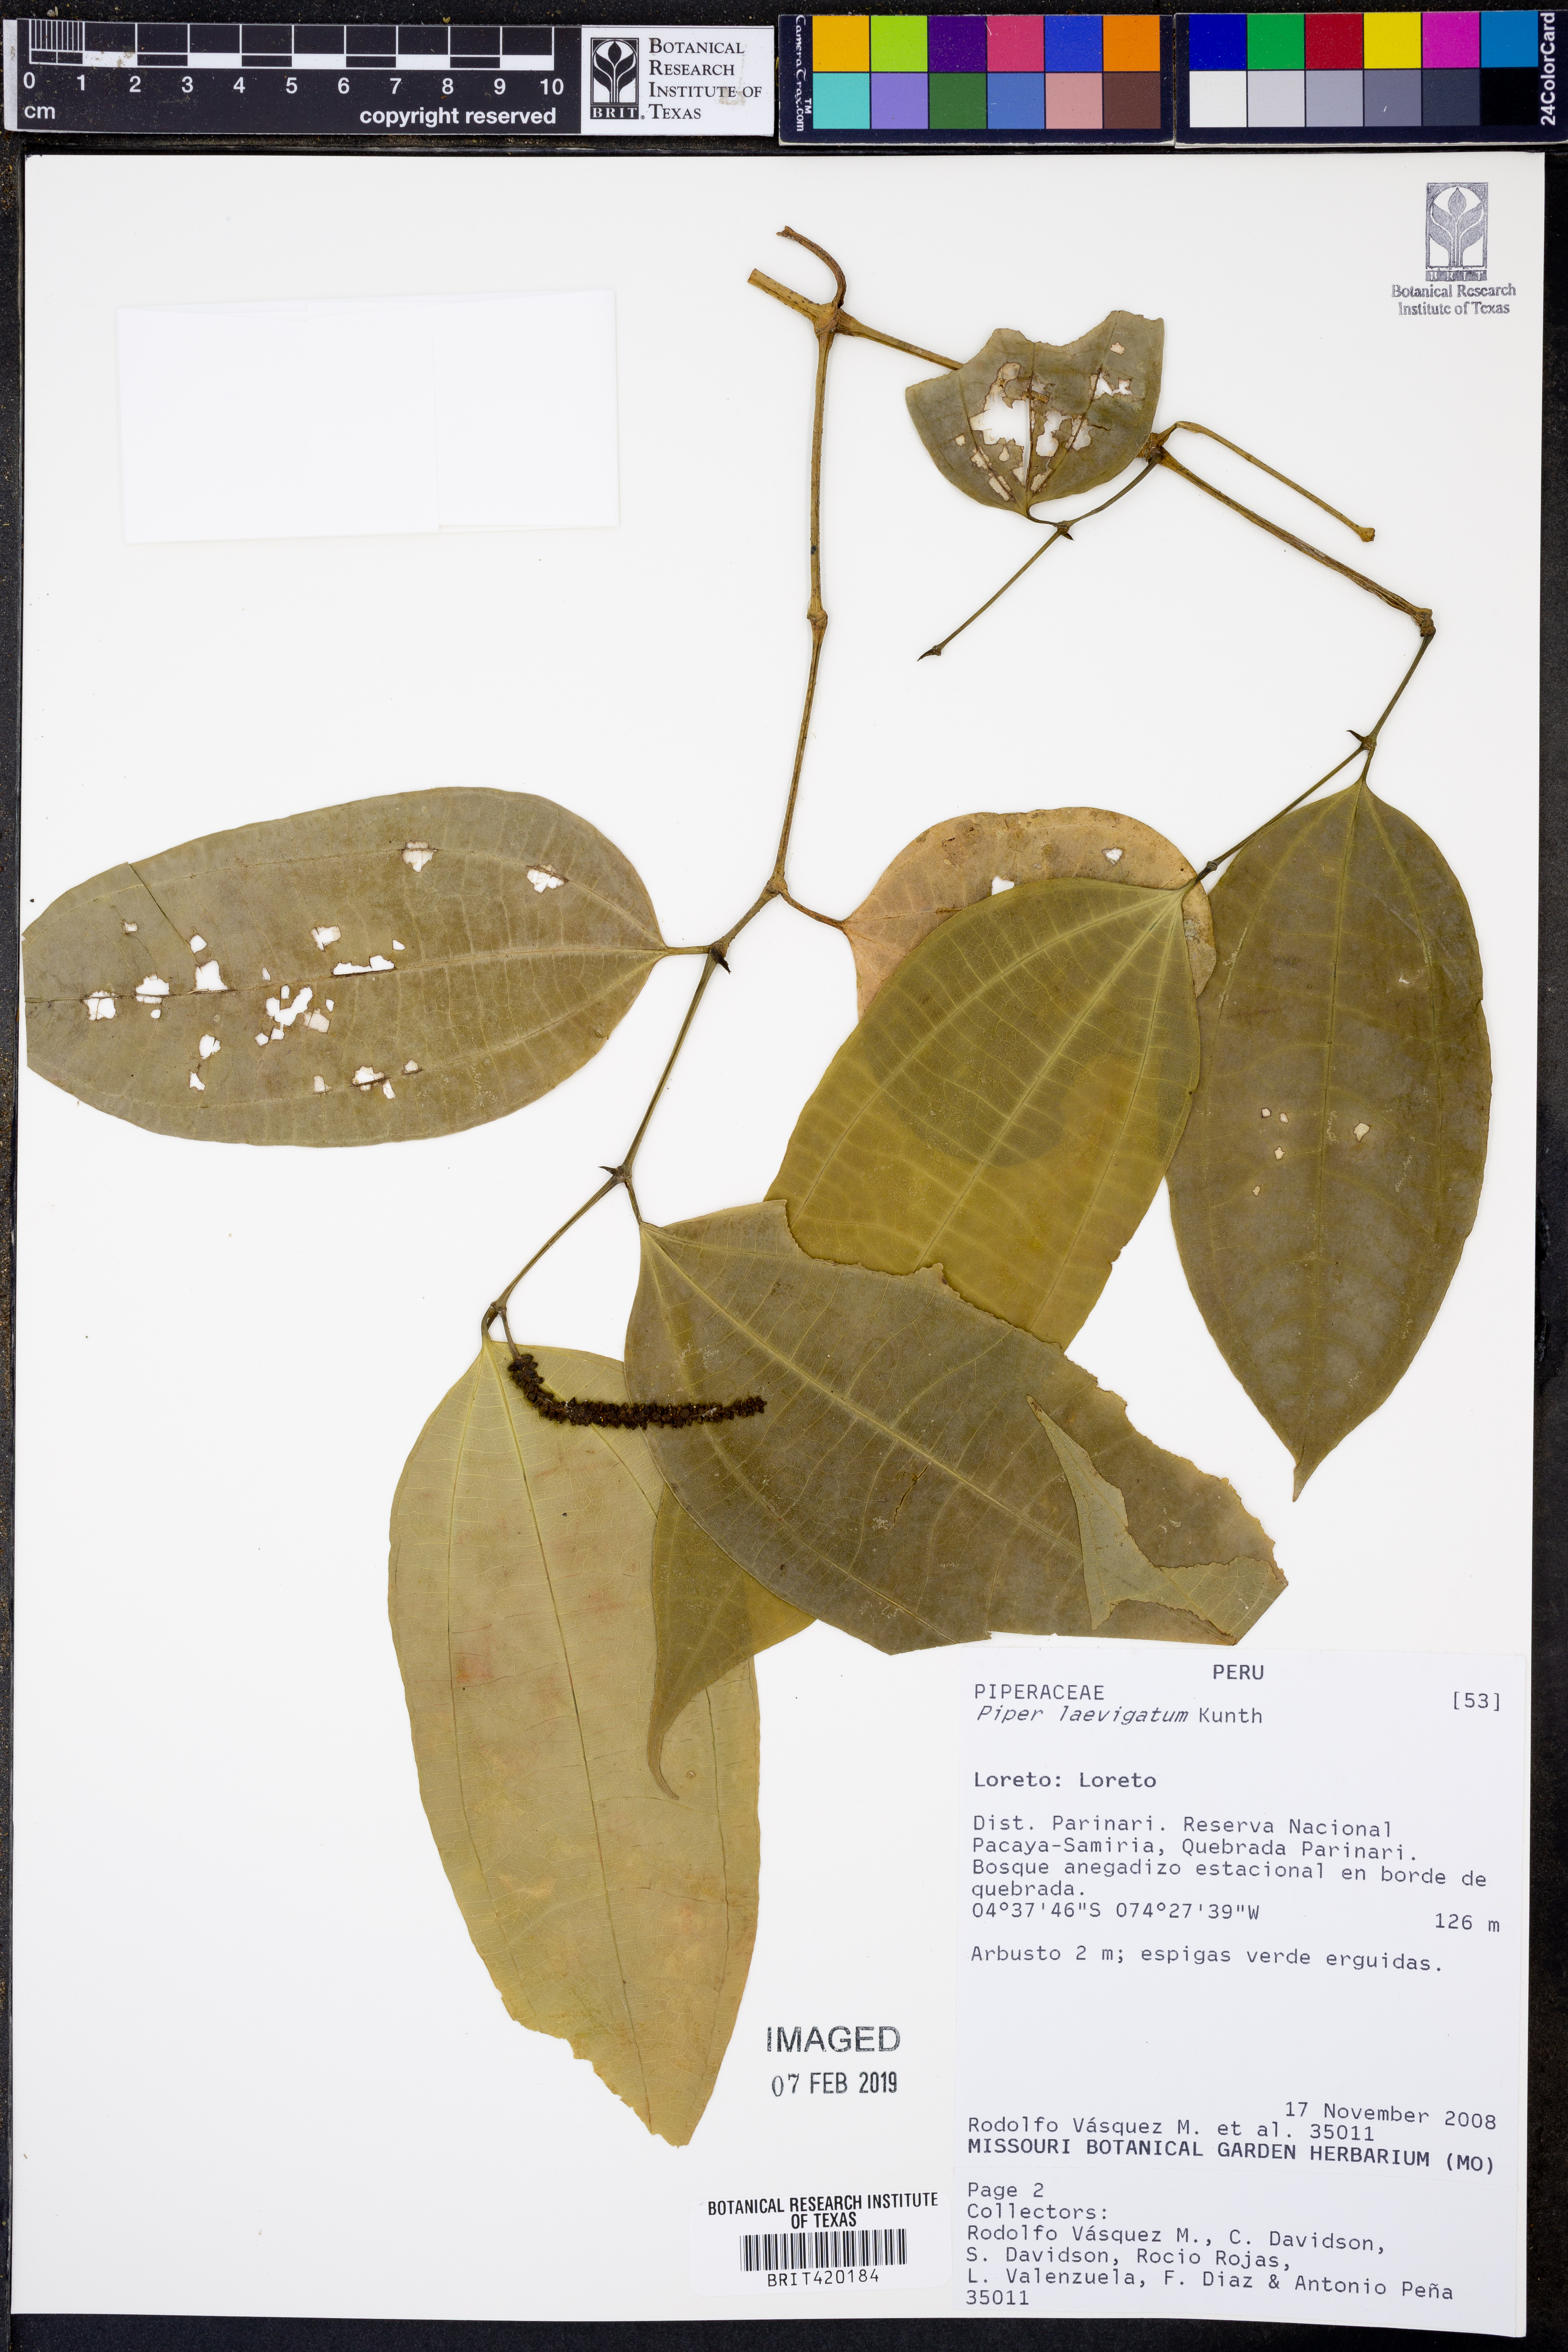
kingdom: Plantae
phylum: Tracheophyta
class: Magnoliopsida
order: Piperales
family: Piperaceae
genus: Piper
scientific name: Piper laevigatum
